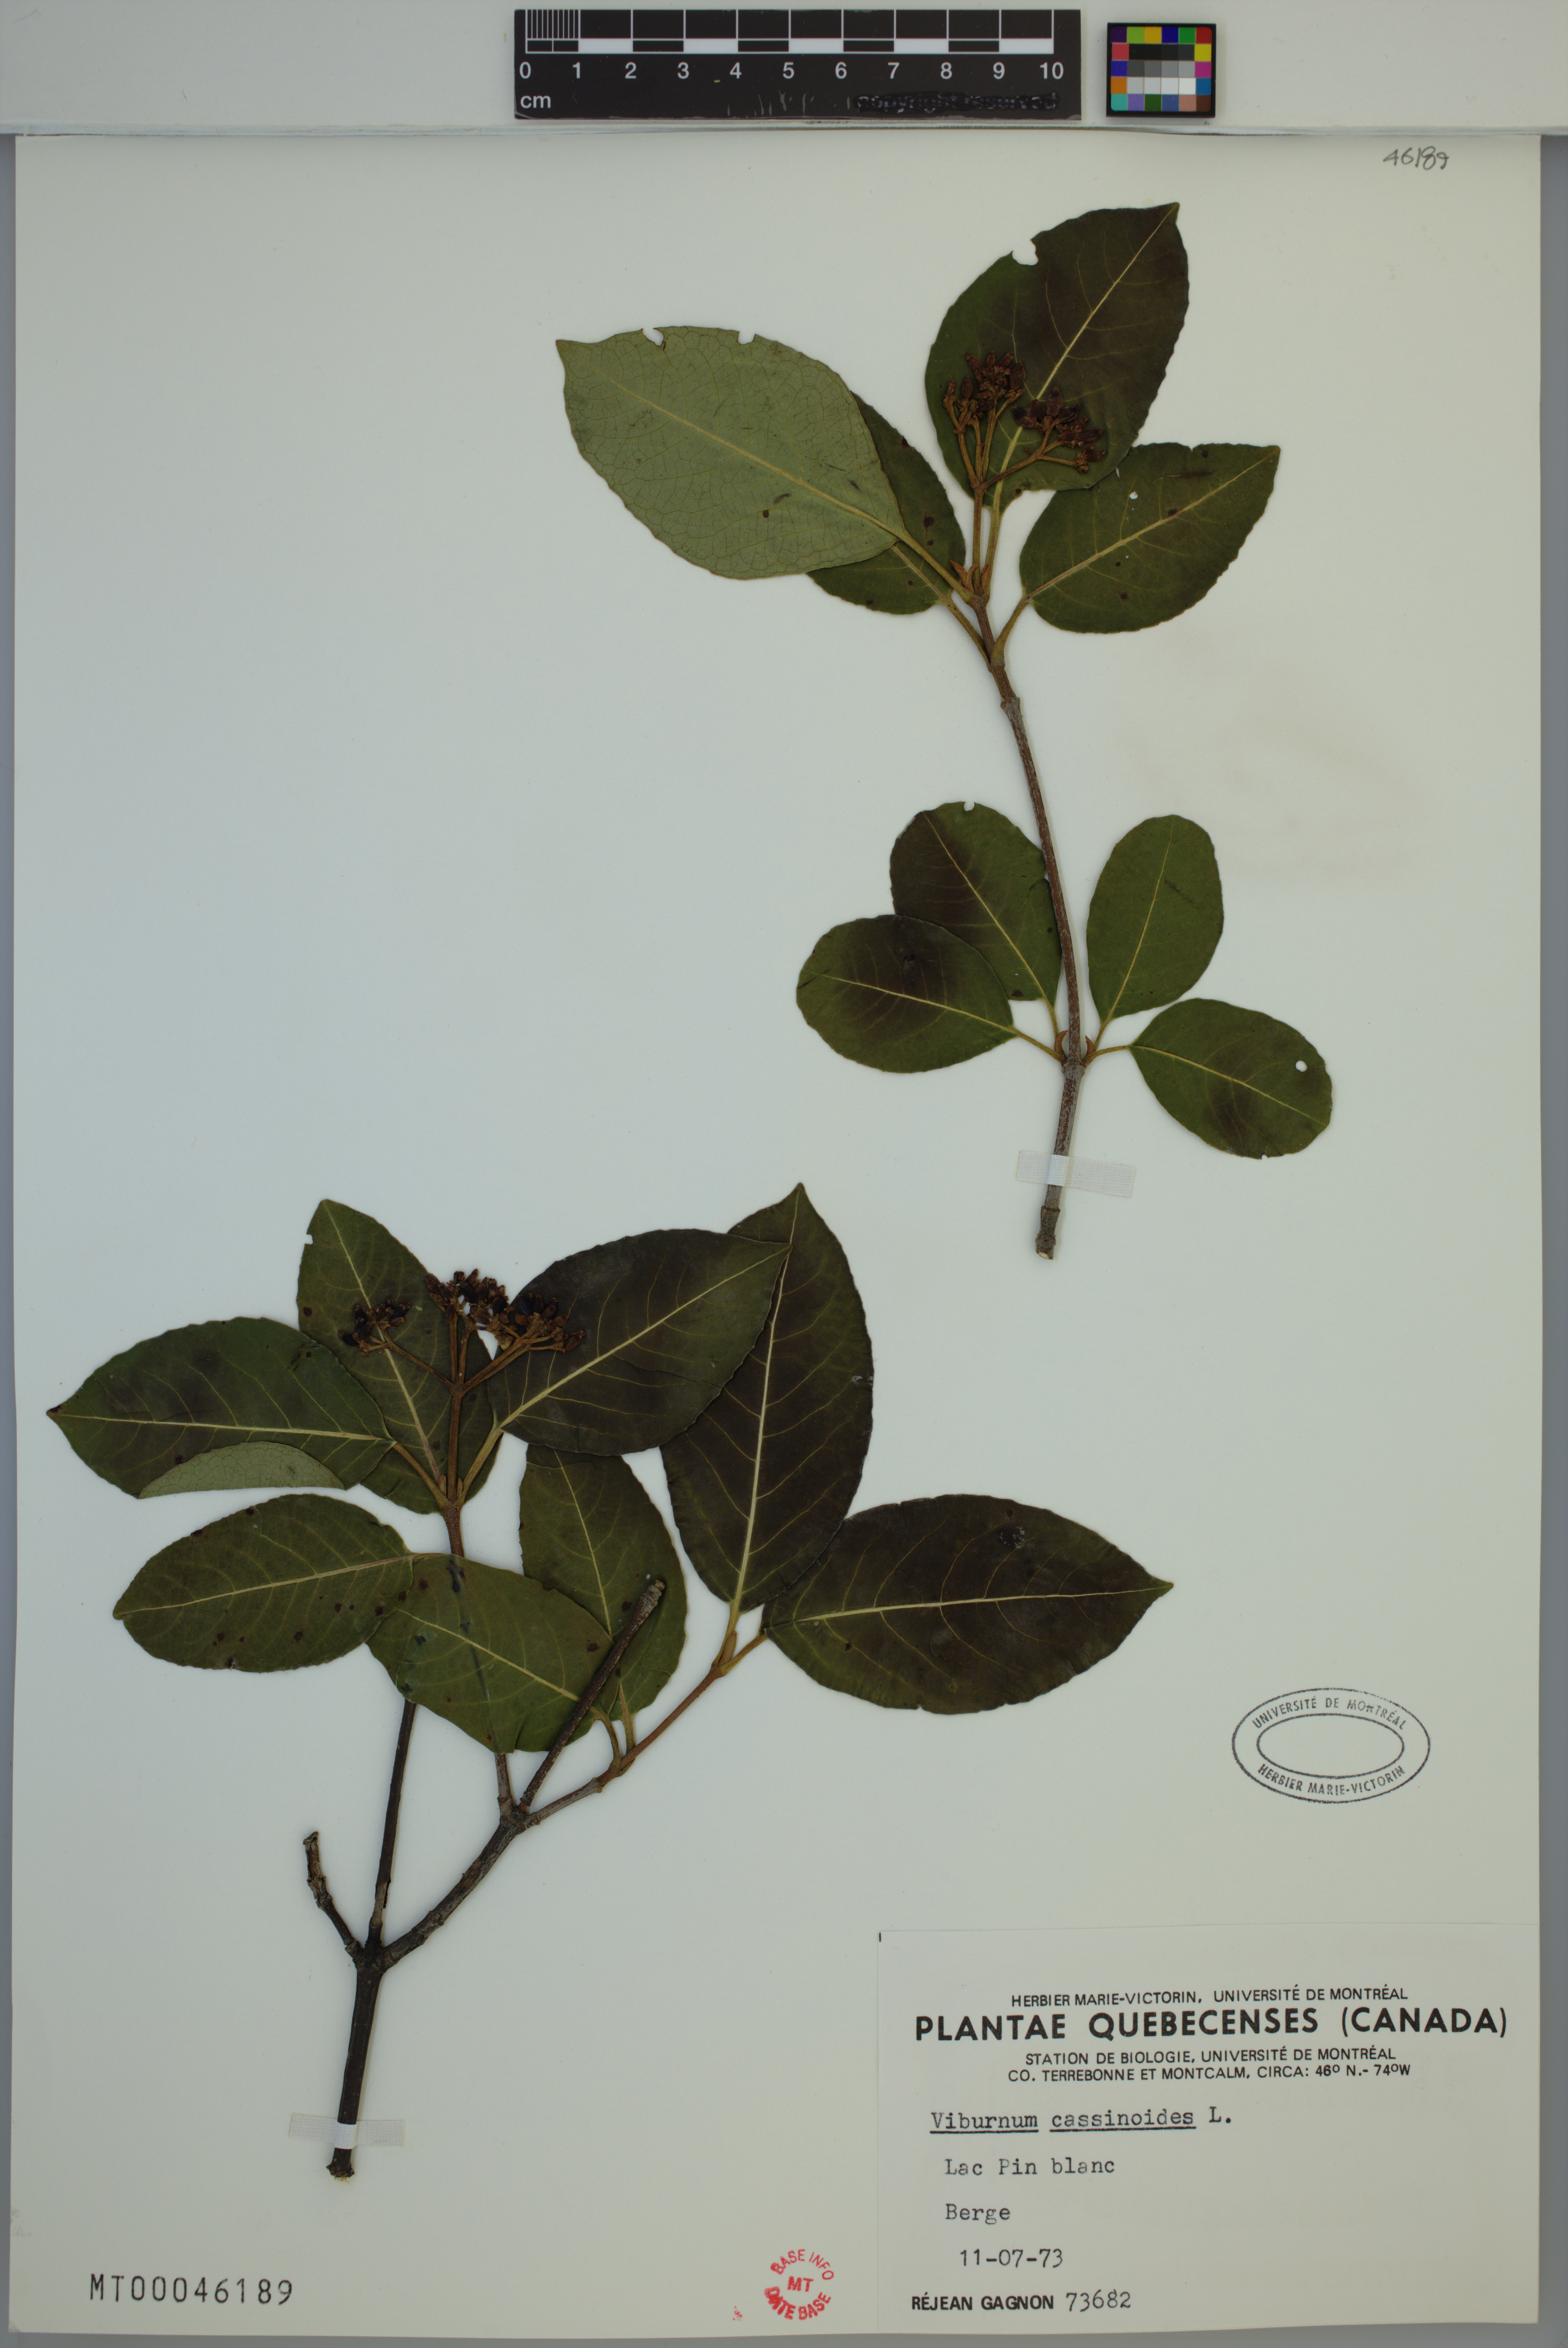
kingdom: Plantae
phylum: Tracheophyta
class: Magnoliopsida
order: Dipsacales
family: Viburnaceae
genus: Viburnum
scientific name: Viburnum cassinoides
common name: Swamp haw
